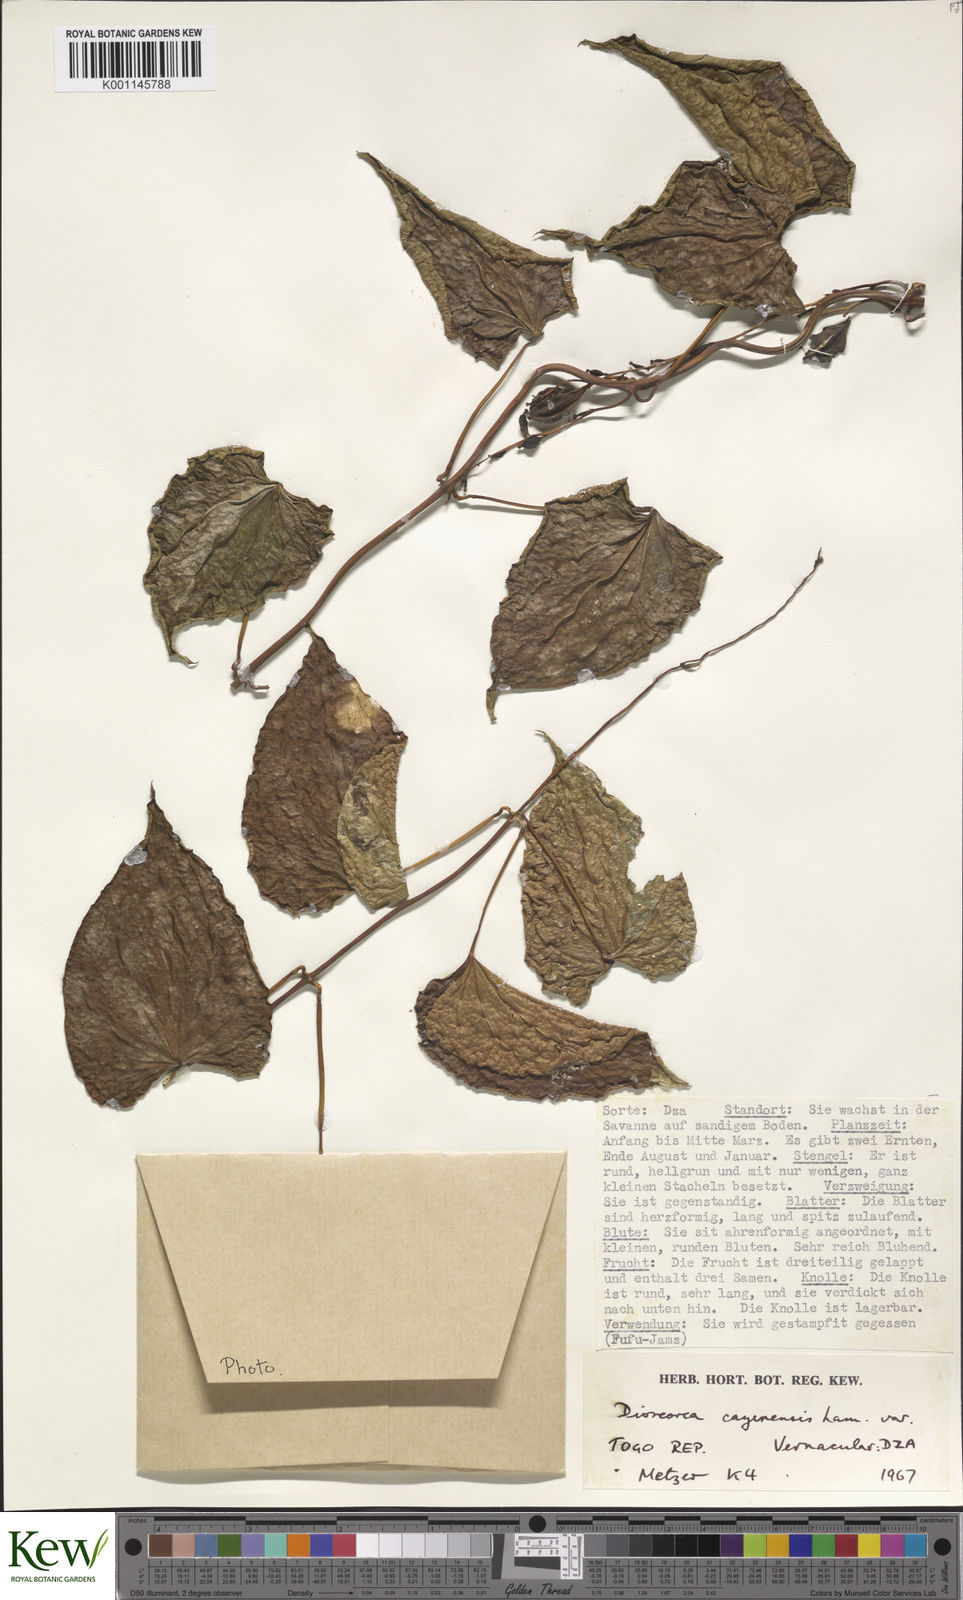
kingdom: Plantae
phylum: Tracheophyta
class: Liliopsida
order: Dioscoreales
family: Dioscoreaceae
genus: Dioscorea
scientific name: Dioscorea cayenensis
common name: Attoto yam
